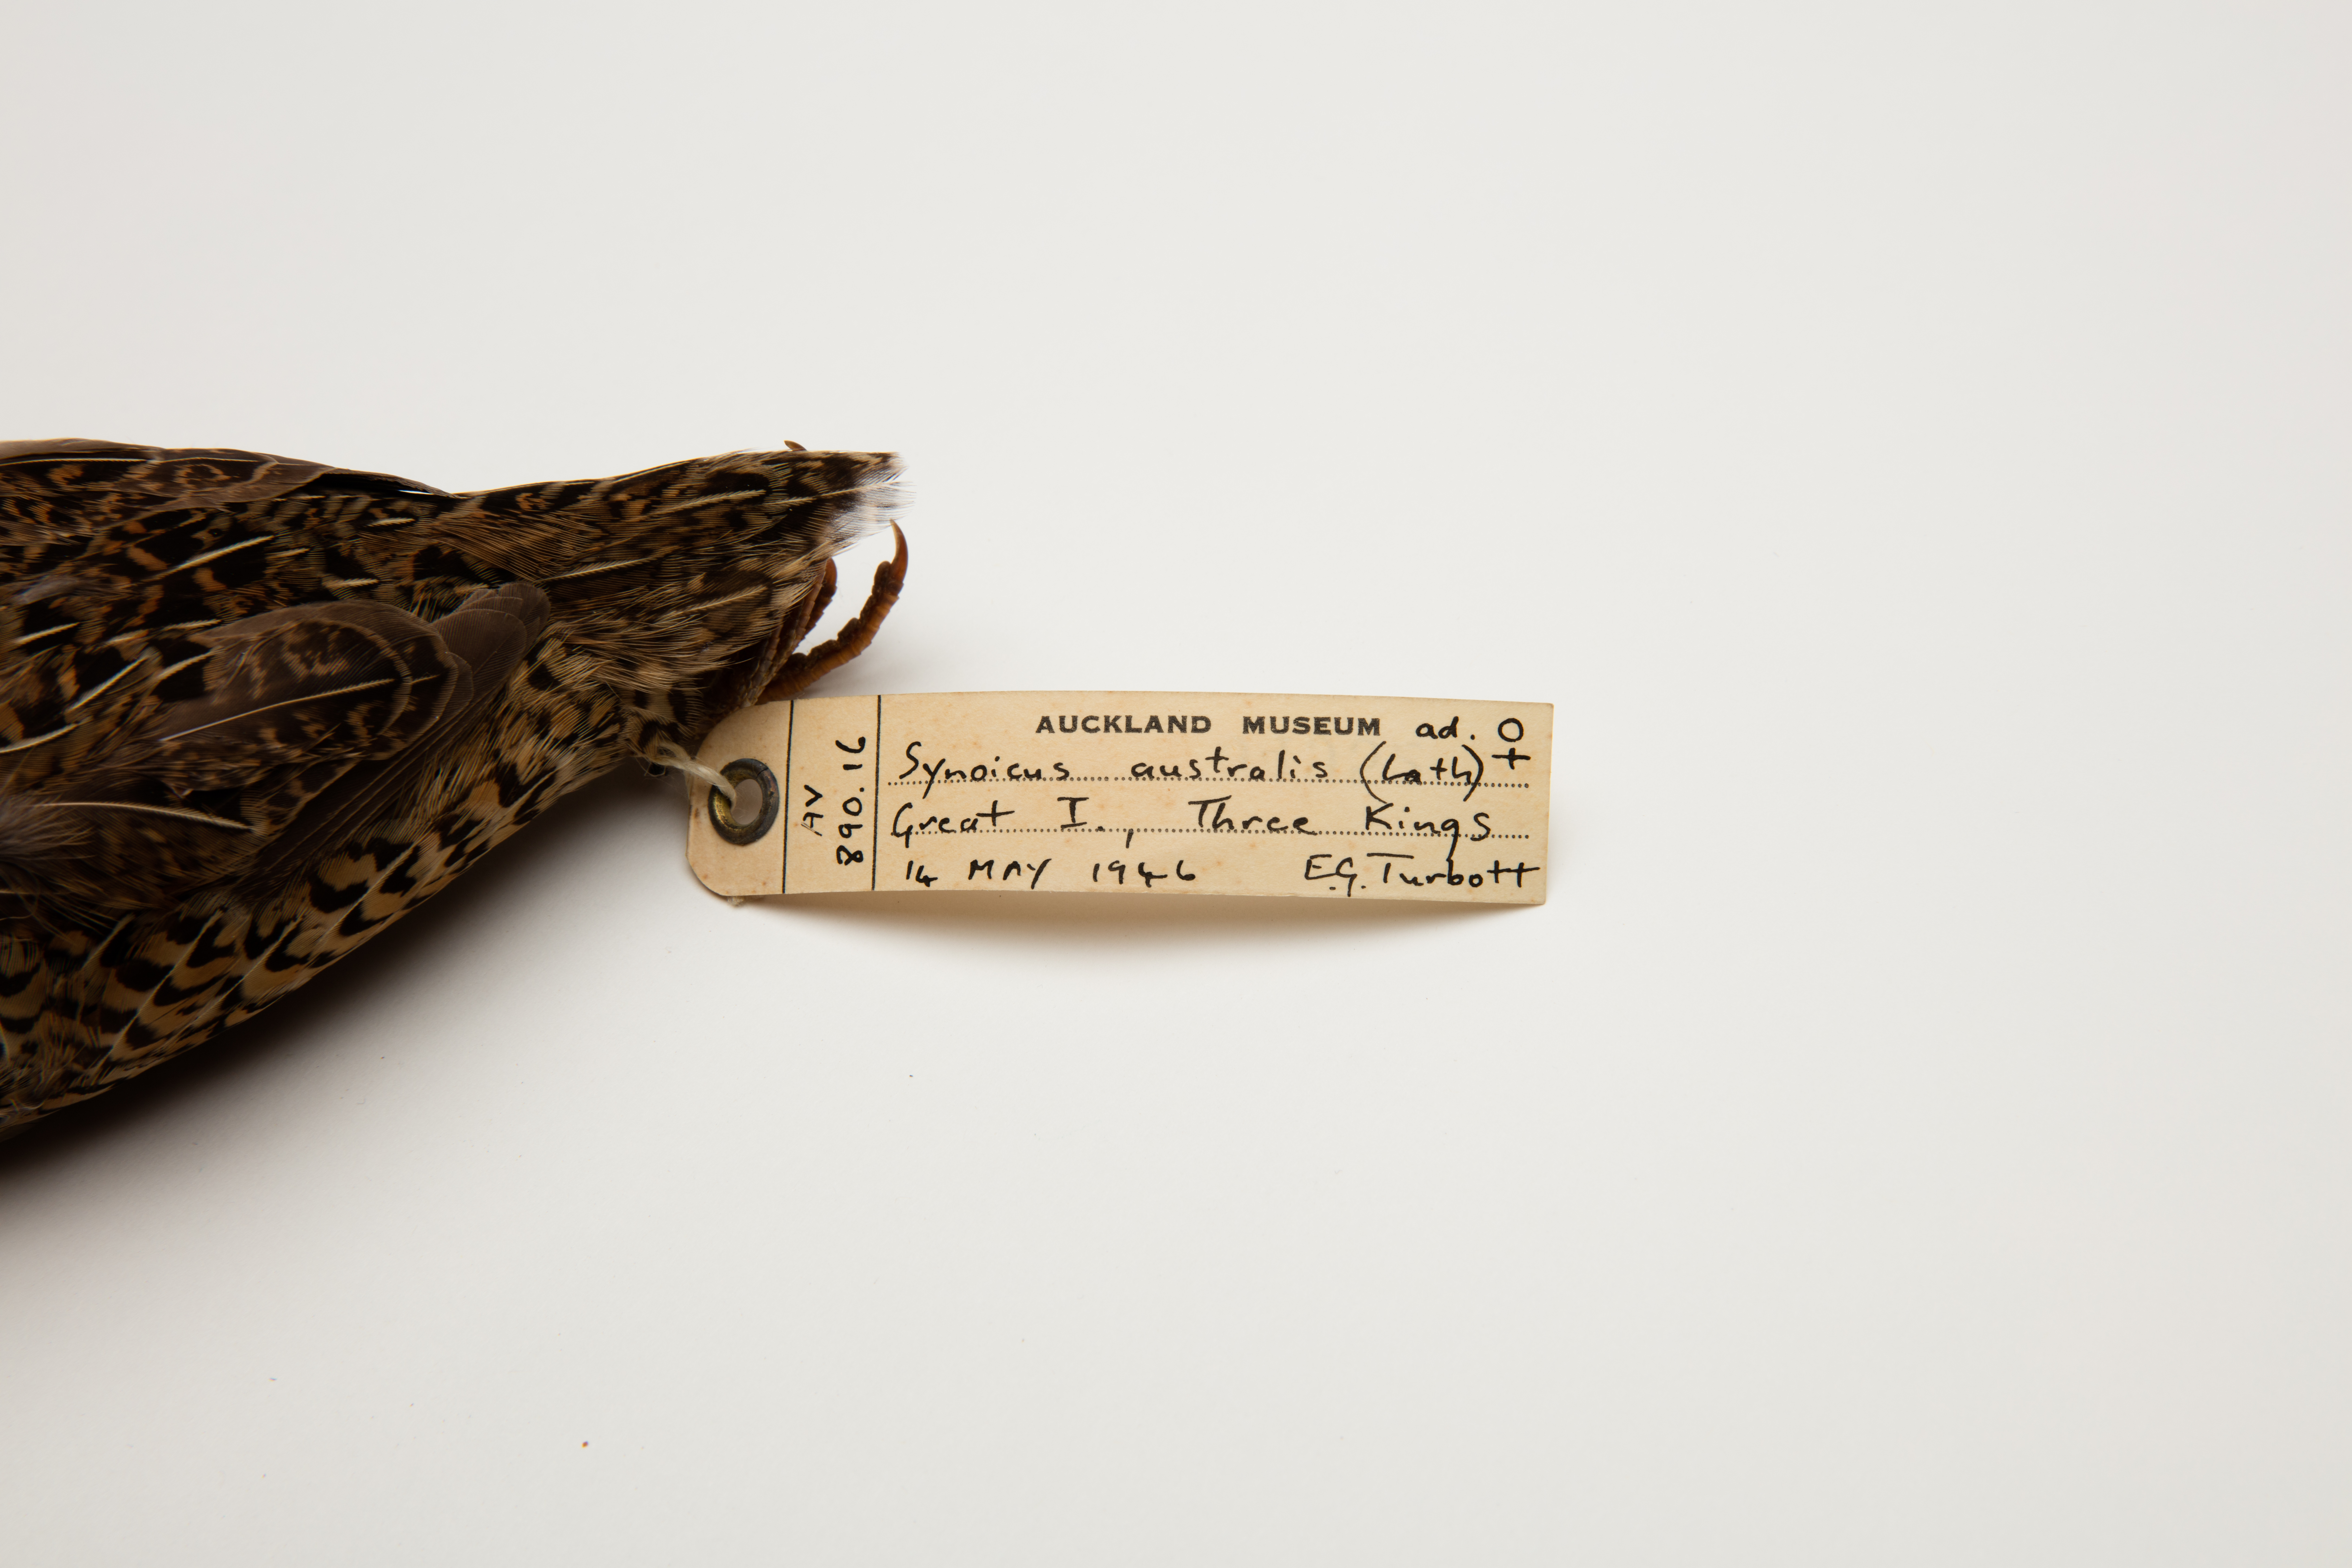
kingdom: Animalia
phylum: Chordata
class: Aves
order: Galliformes
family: Phasianidae
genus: Synoicus
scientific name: Synoicus ypsilophorus
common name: Brown quail
